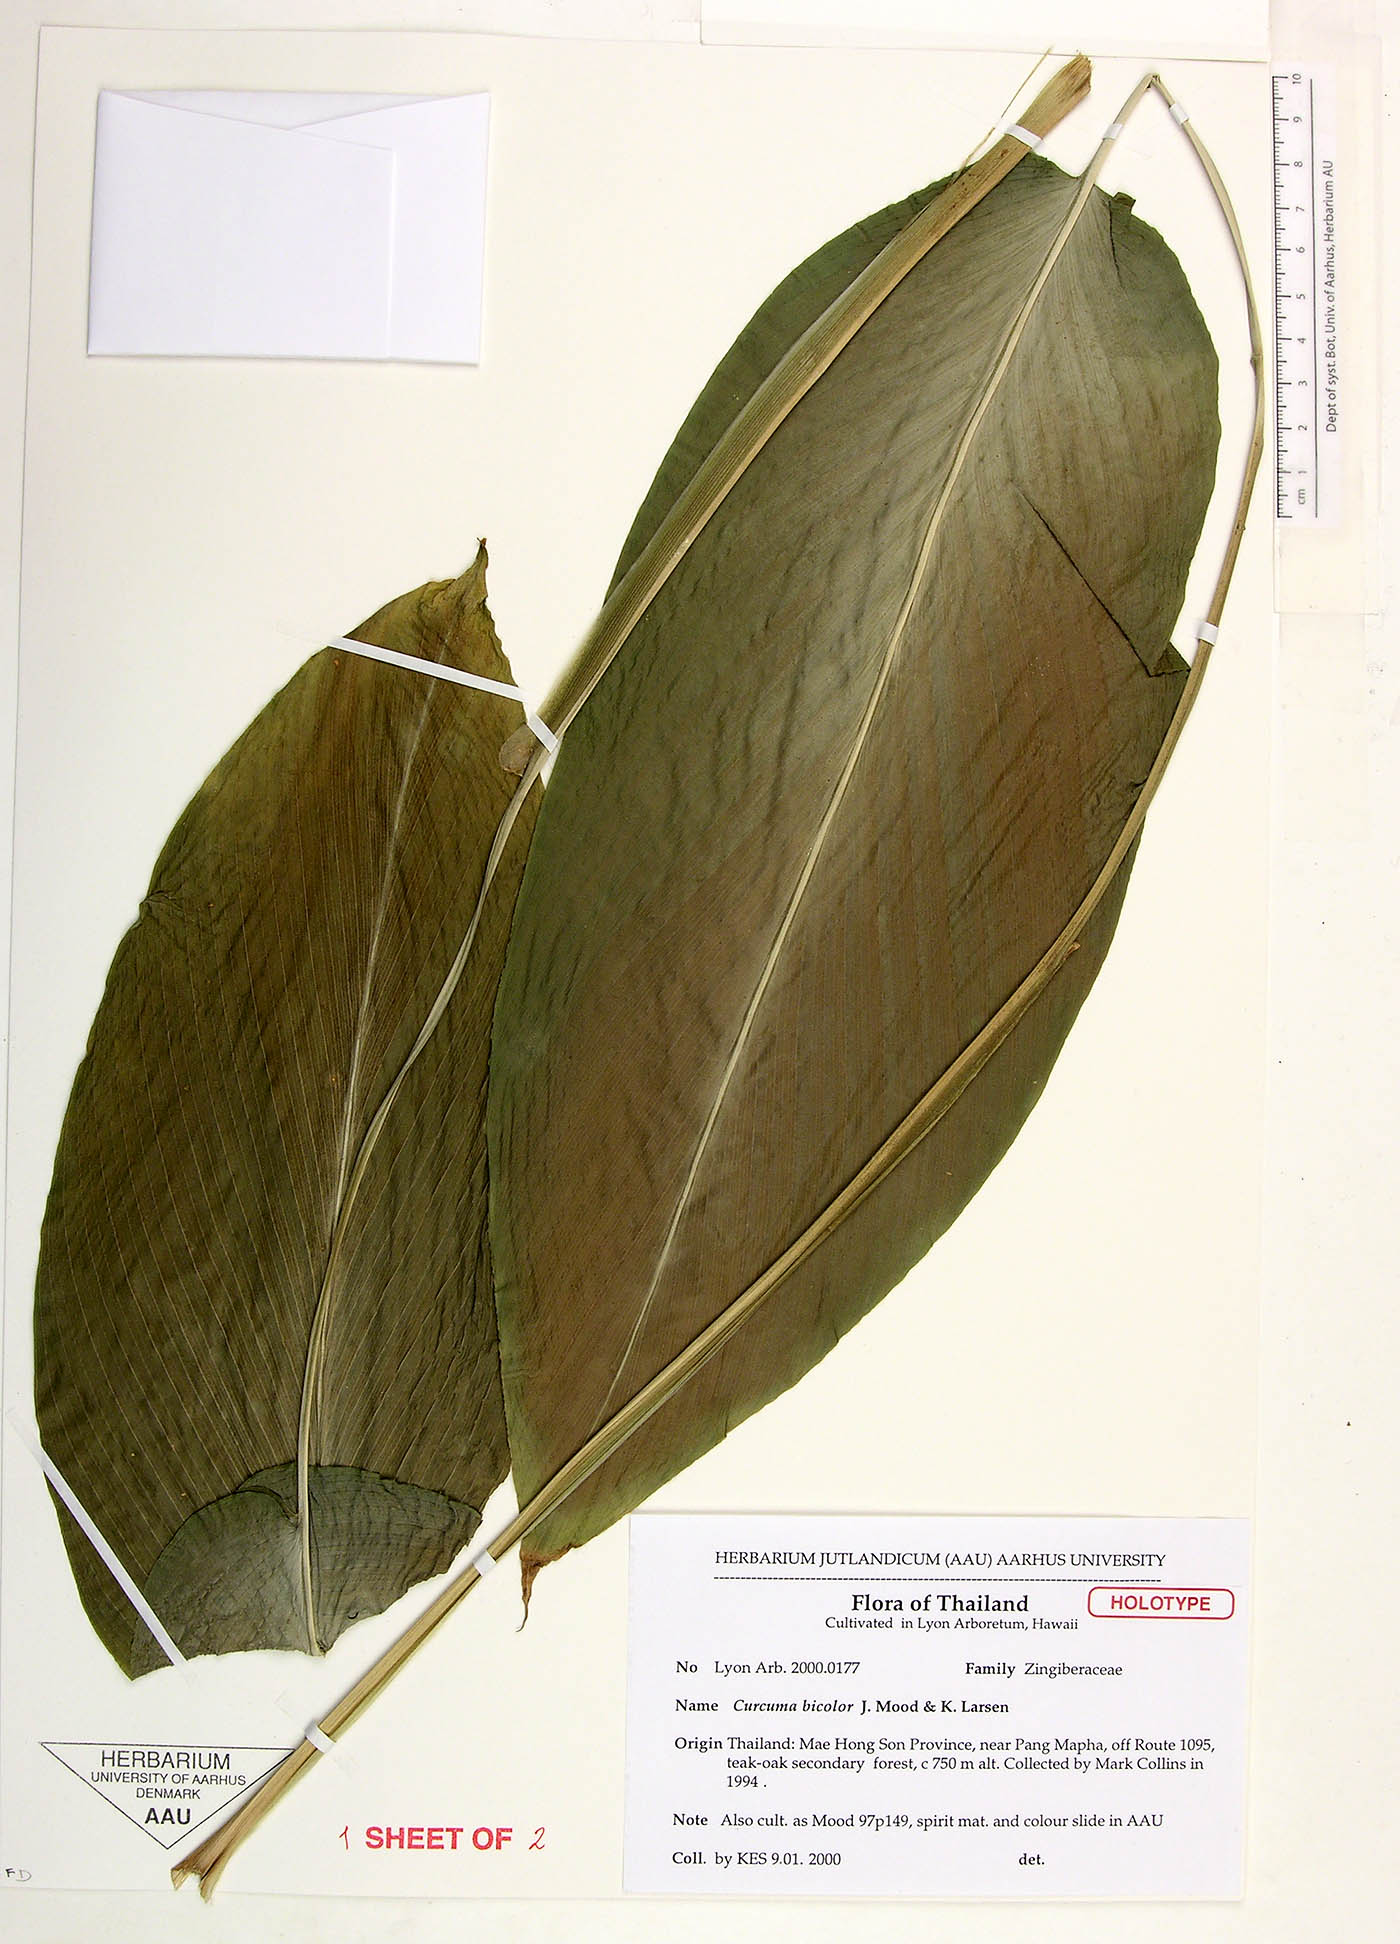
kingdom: Plantae
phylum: Tracheophyta
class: Liliopsida
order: Zingiberales
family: Zingiberaceae
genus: Curcuma
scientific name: Curcuma bicolor
